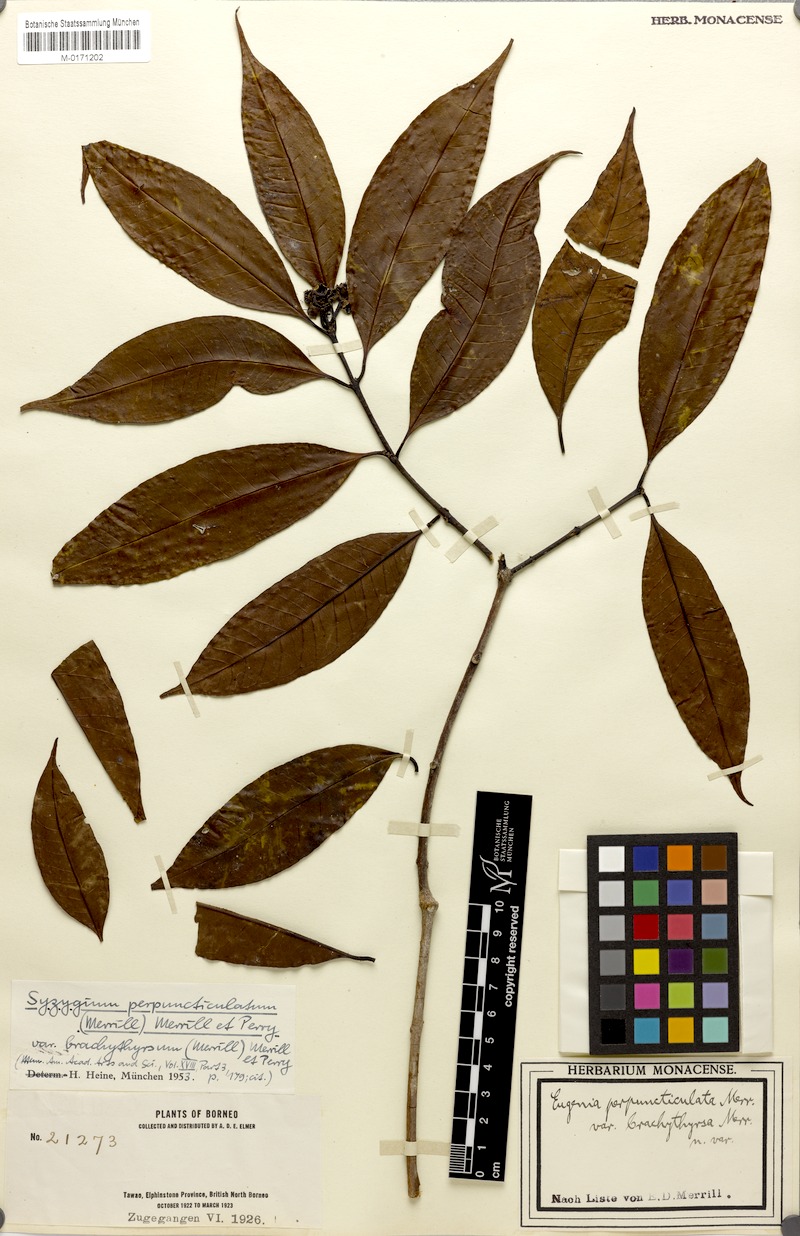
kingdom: Plantae
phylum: Tracheophyta
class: Magnoliopsida
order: Myrtales
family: Myrtaceae
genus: Syzygium
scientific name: Syzygium pustulatum
